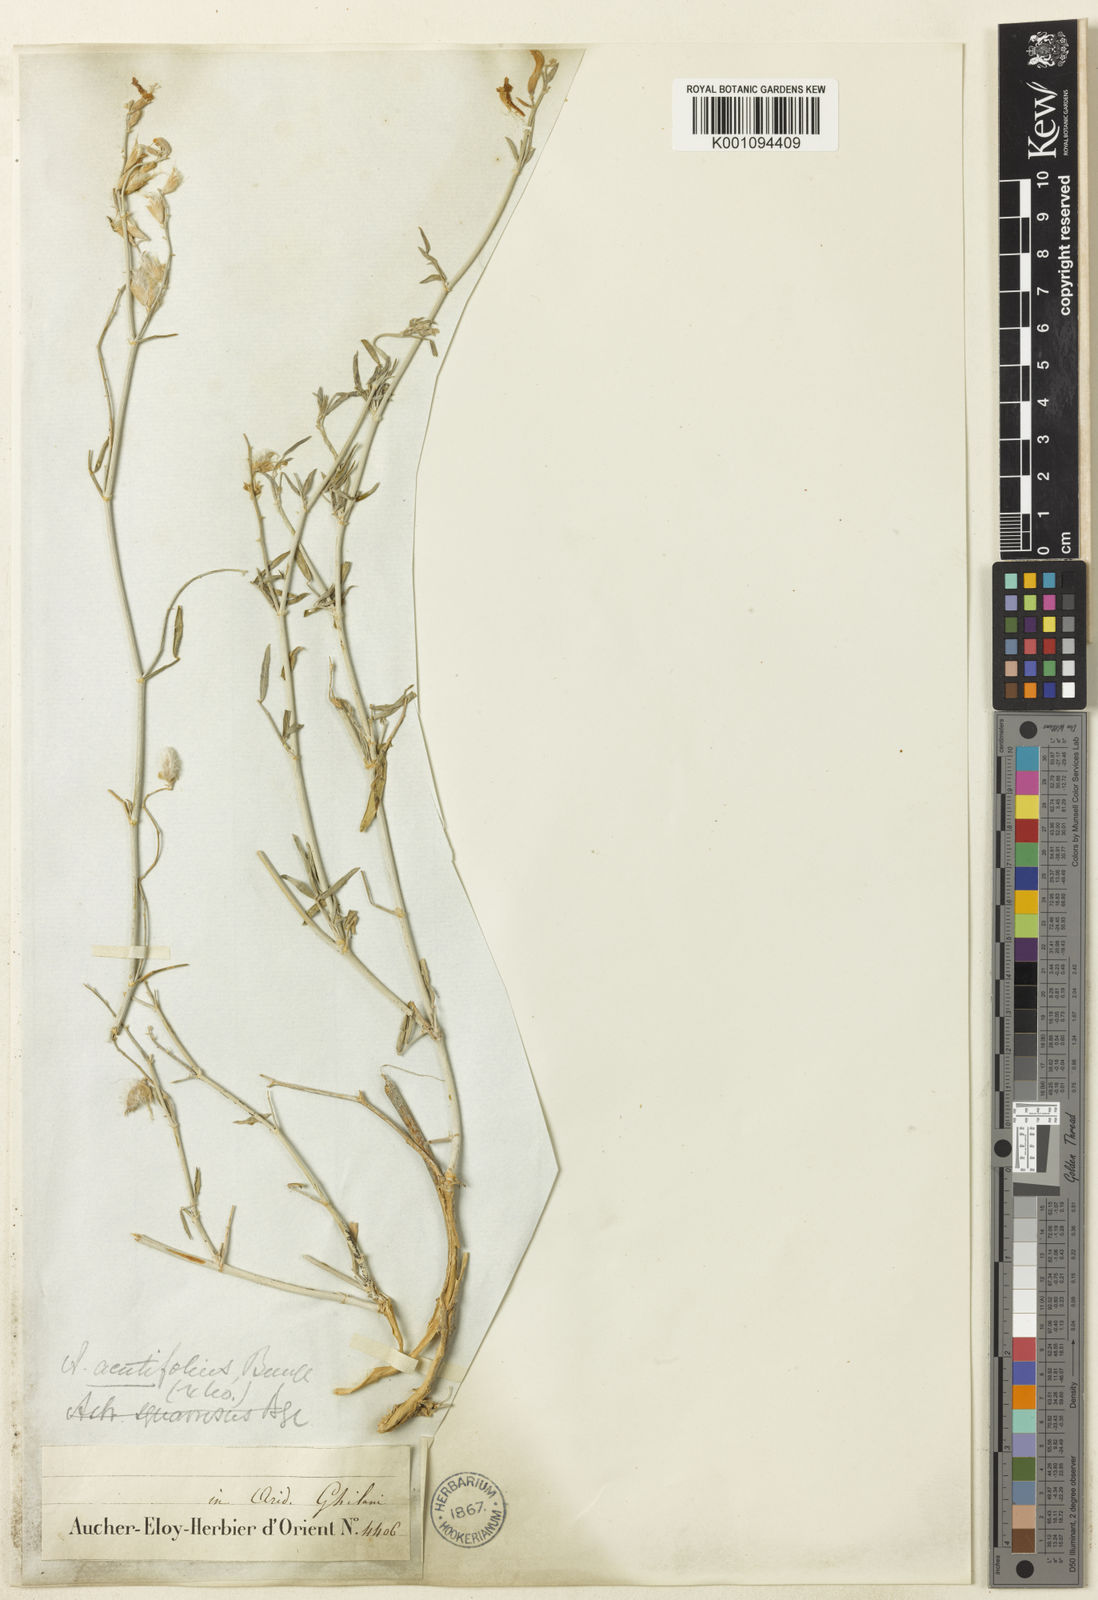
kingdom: Plantae
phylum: Tracheophyta
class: Magnoliopsida
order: Fabales
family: Fabaceae
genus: Astragalus
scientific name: Astragalus
